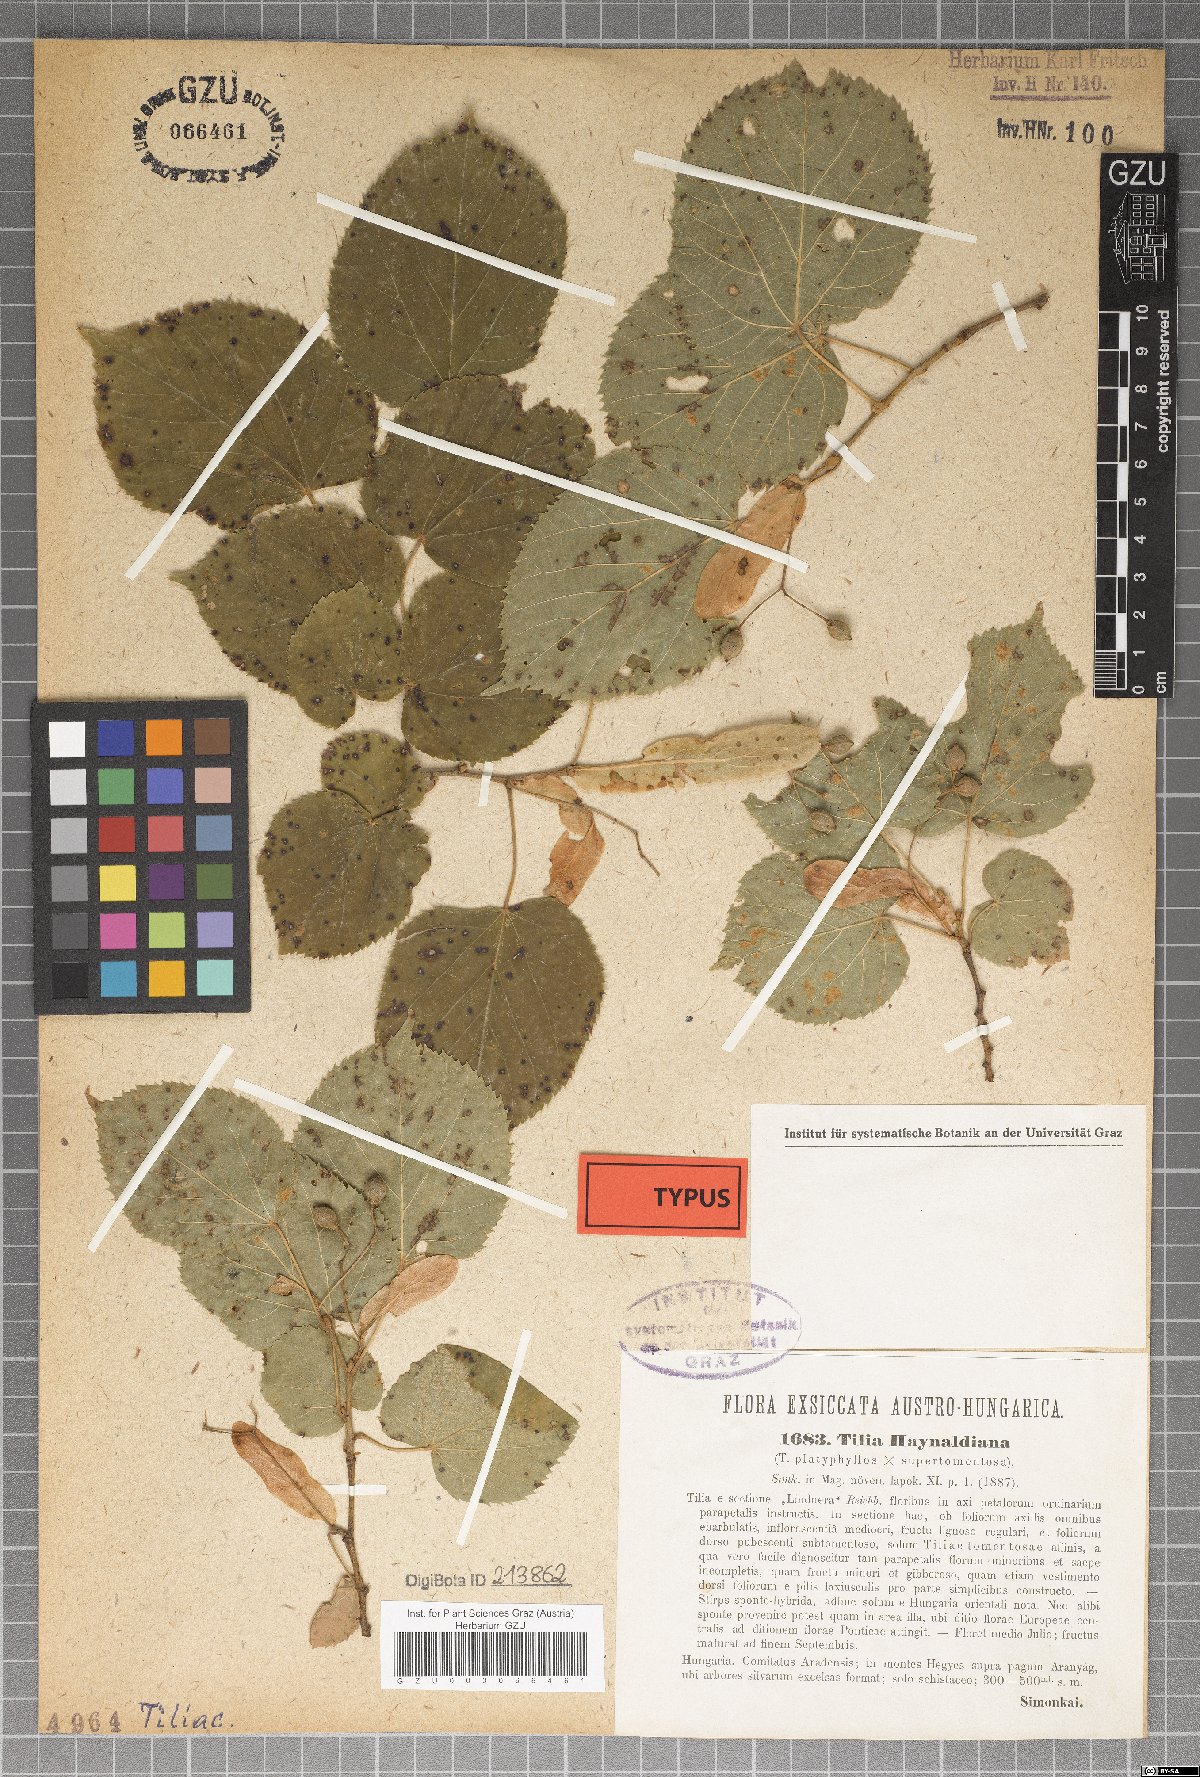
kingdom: Plantae
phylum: Tracheophyta
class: Magnoliopsida
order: Malvales
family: Malvaceae
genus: Tilia
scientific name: Tilia haynaldiana
